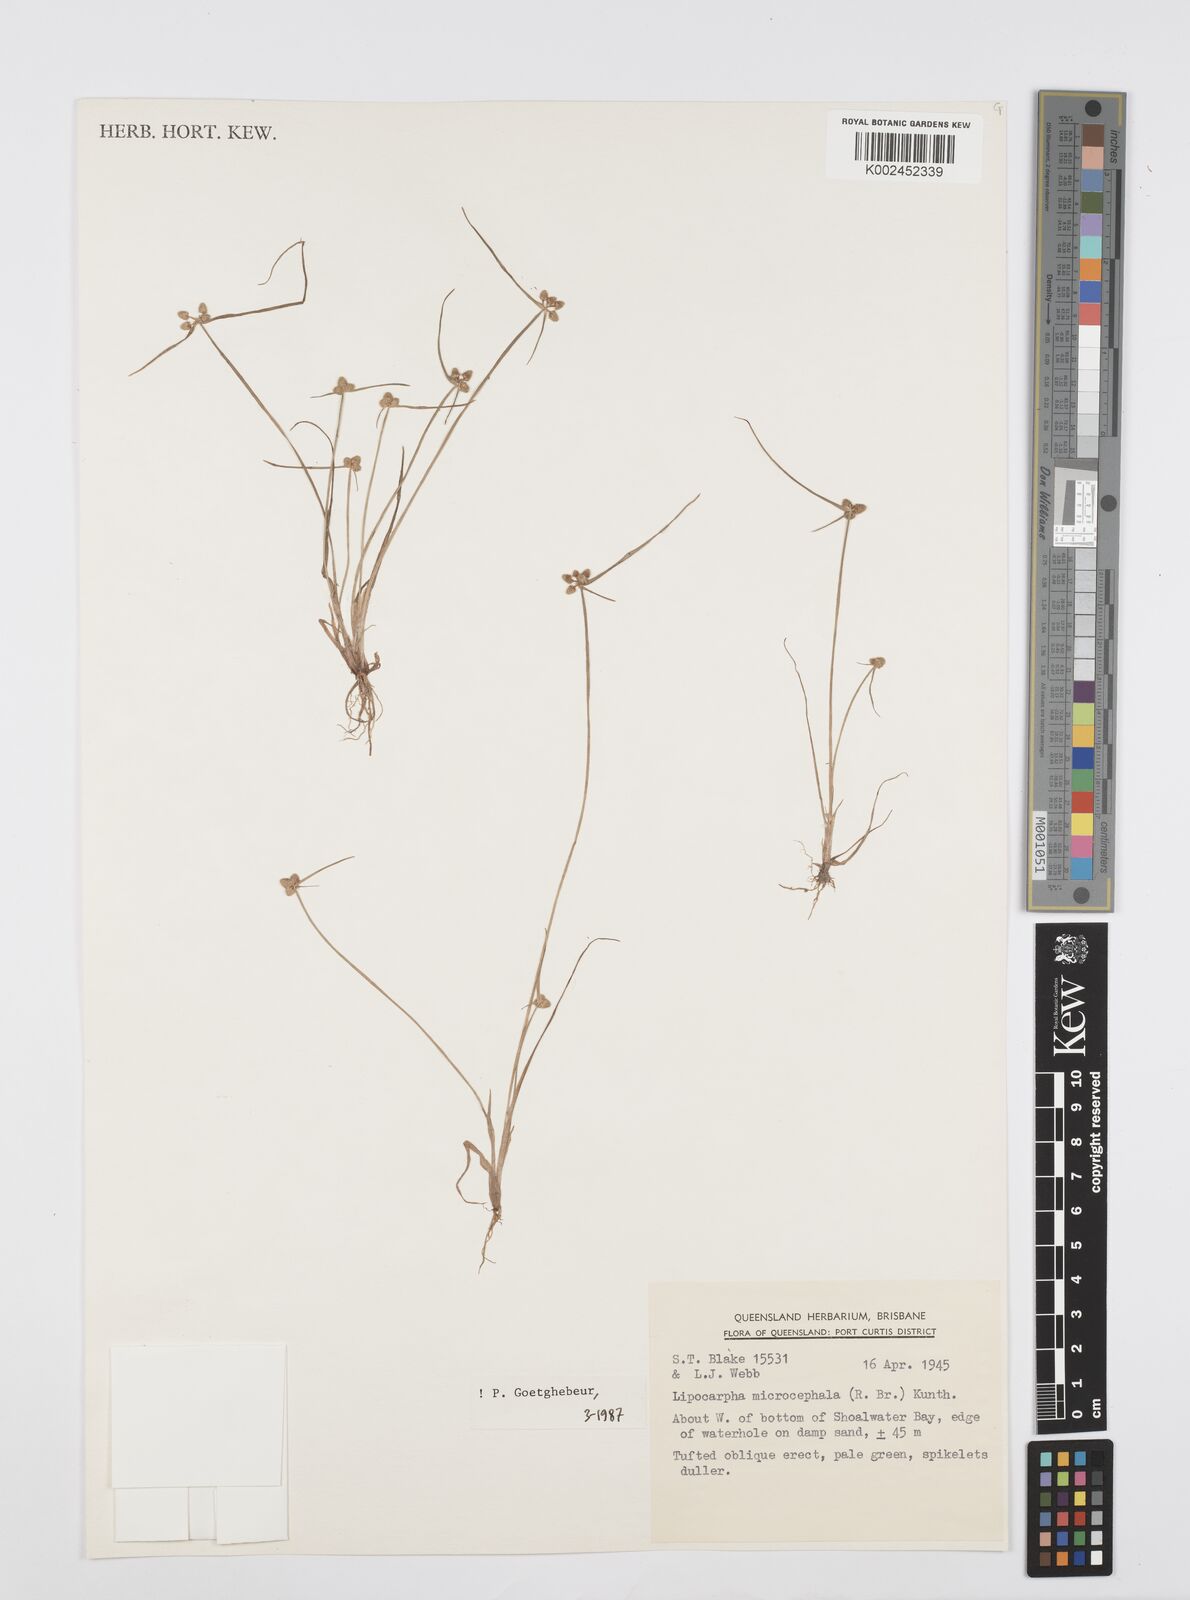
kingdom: Plantae
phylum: Tracheophyta
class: Liliopsida
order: Poales
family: Cyperaceae
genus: Cyperus
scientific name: Cyperus microcephalus
